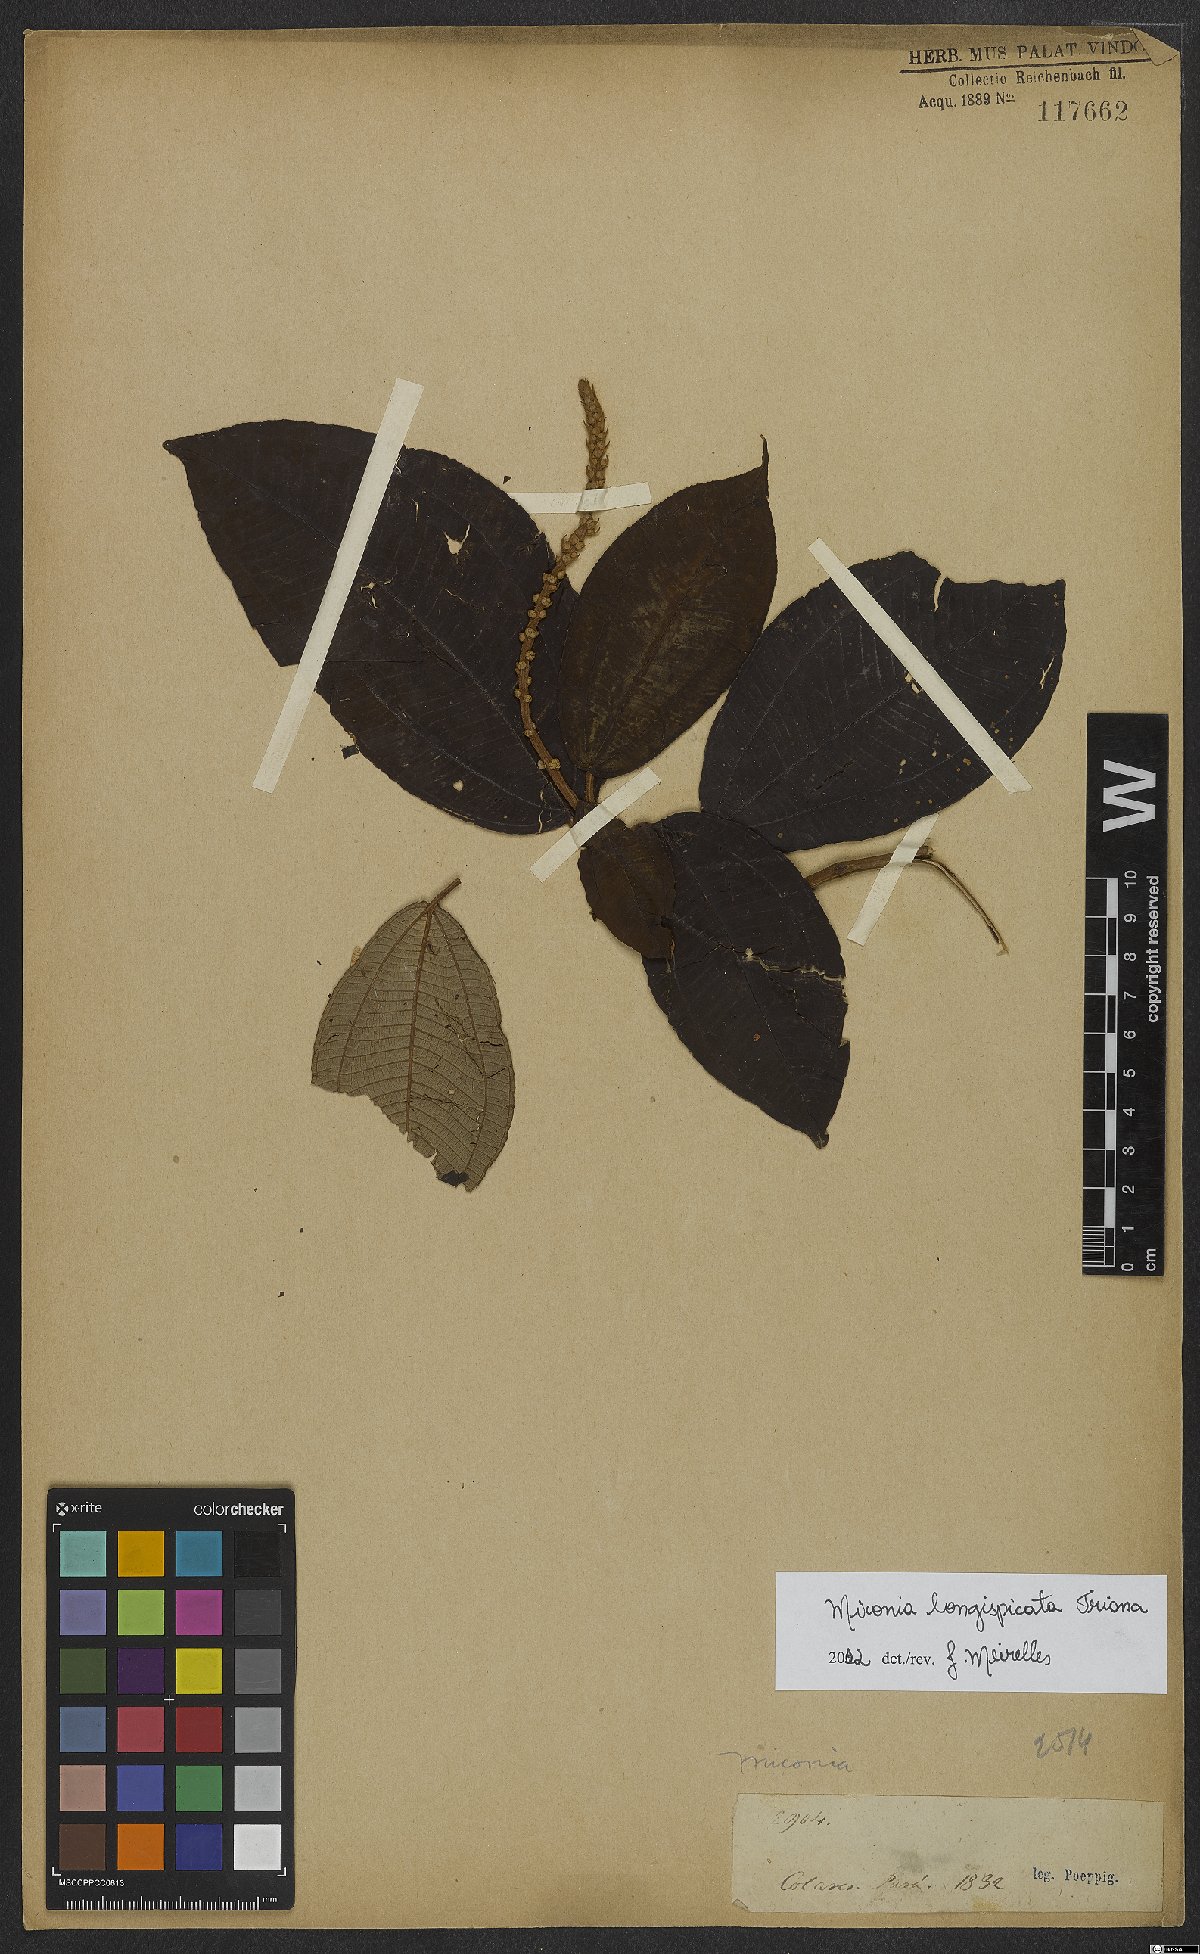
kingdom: Plantae
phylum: Tracheophyta
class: Magnoliopsida
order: Myrtales
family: Melastomataceae
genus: Miconia
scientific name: Miconia longispicata
